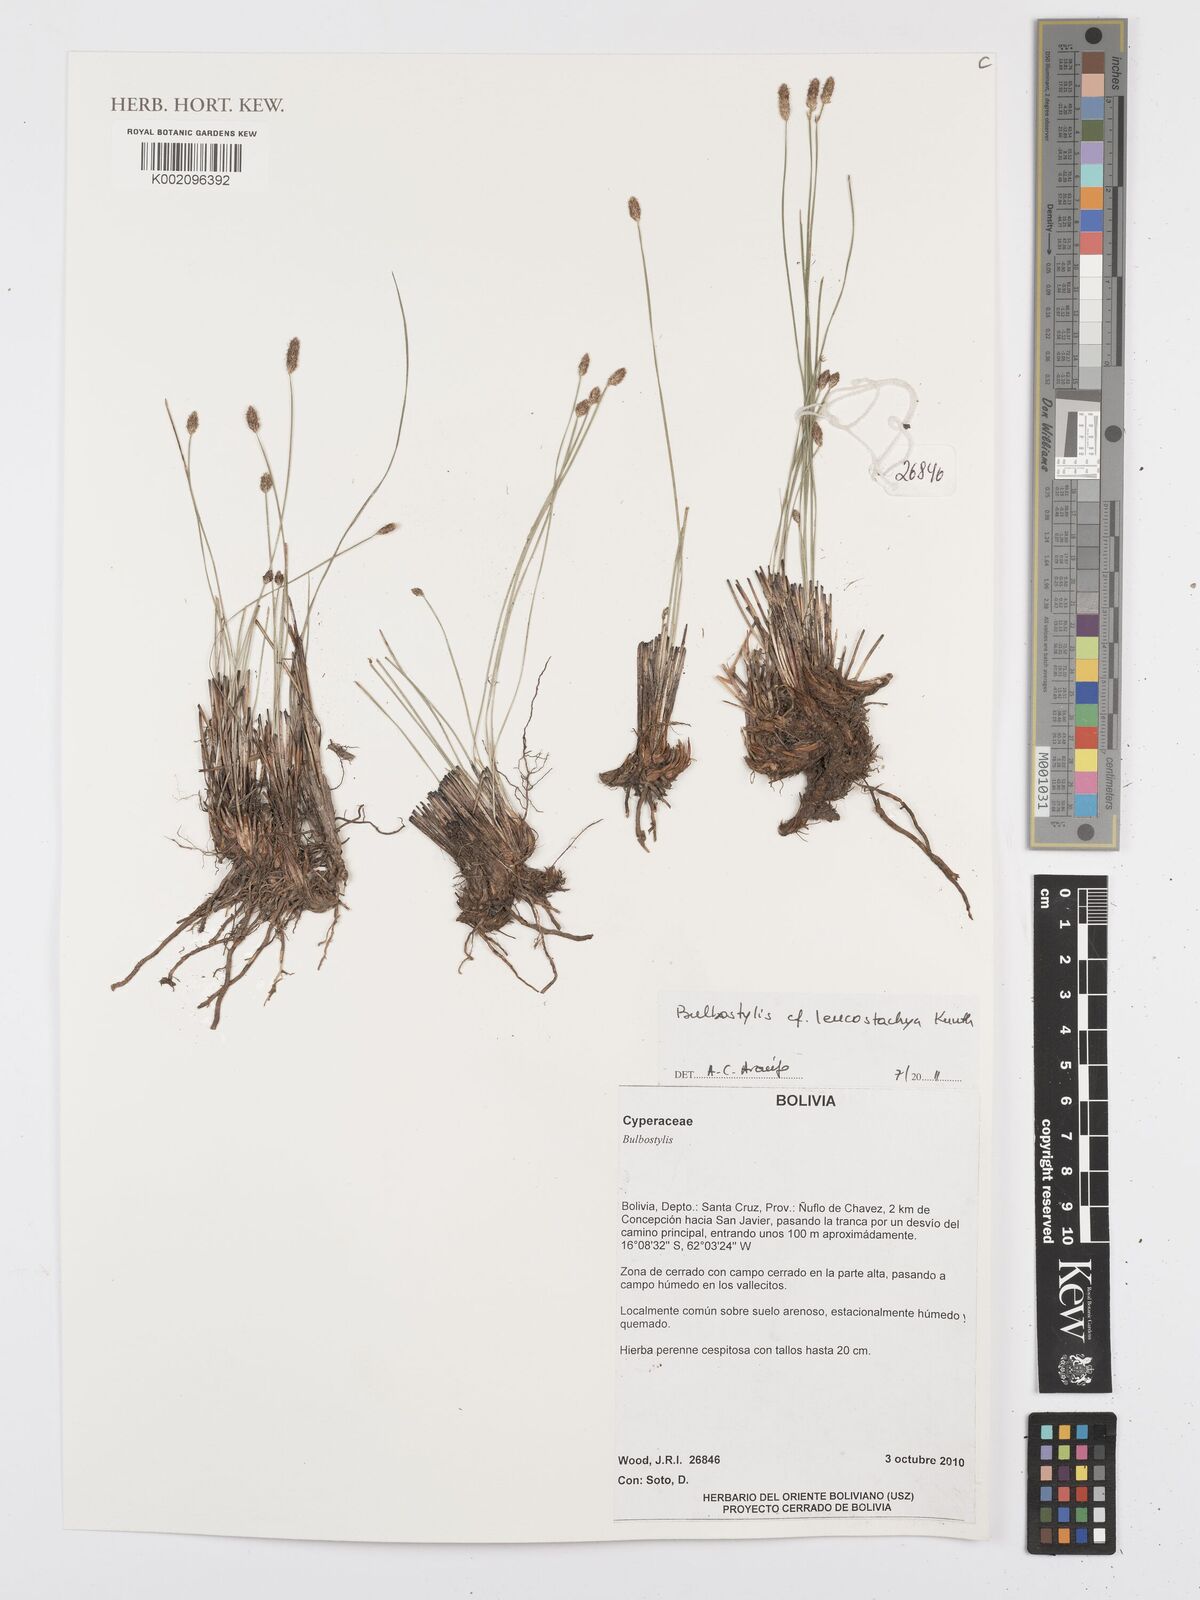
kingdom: Plantae
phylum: Tracheophyta
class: Liliopsida
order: Poales
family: Cyperaceae
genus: Bulbostylis
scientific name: Bulbostylis leucostachya
